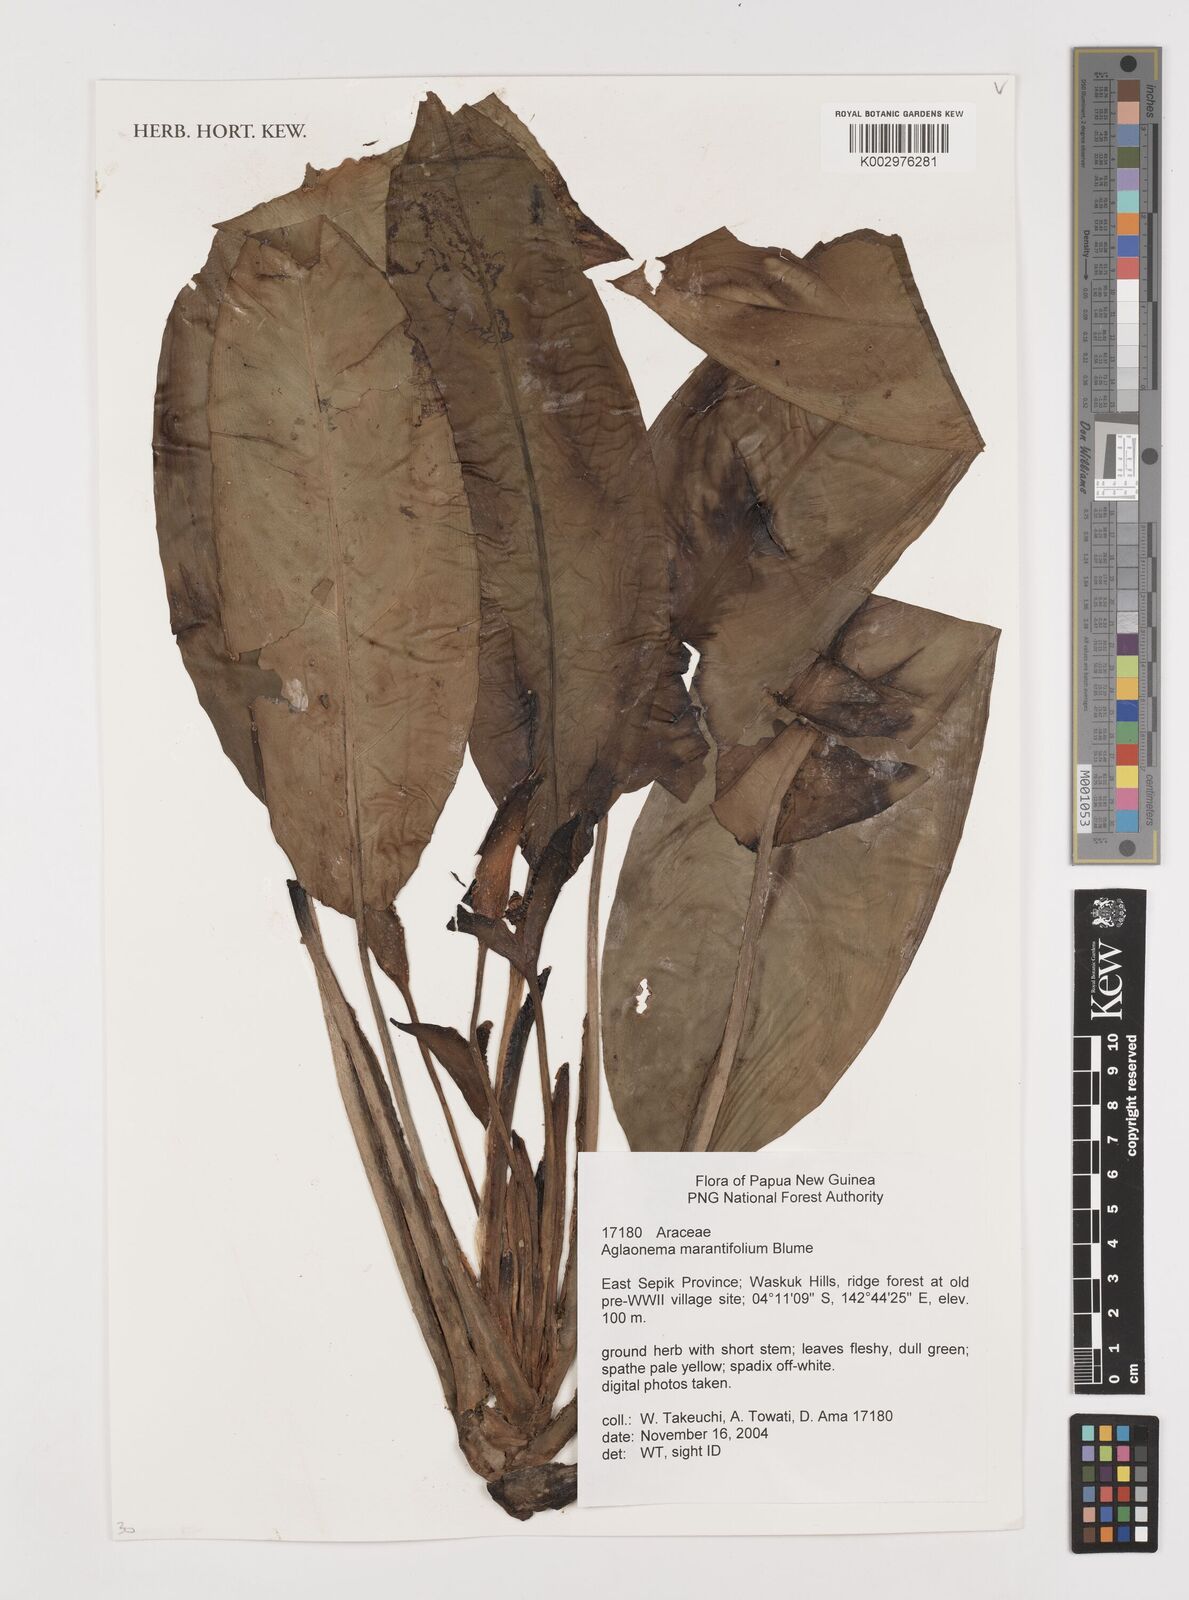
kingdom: Plantae
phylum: Tracheophyta
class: Liliopsida
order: Alismatales
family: Araceae
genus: Aglaonema
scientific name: Aglaonema marantifolium
